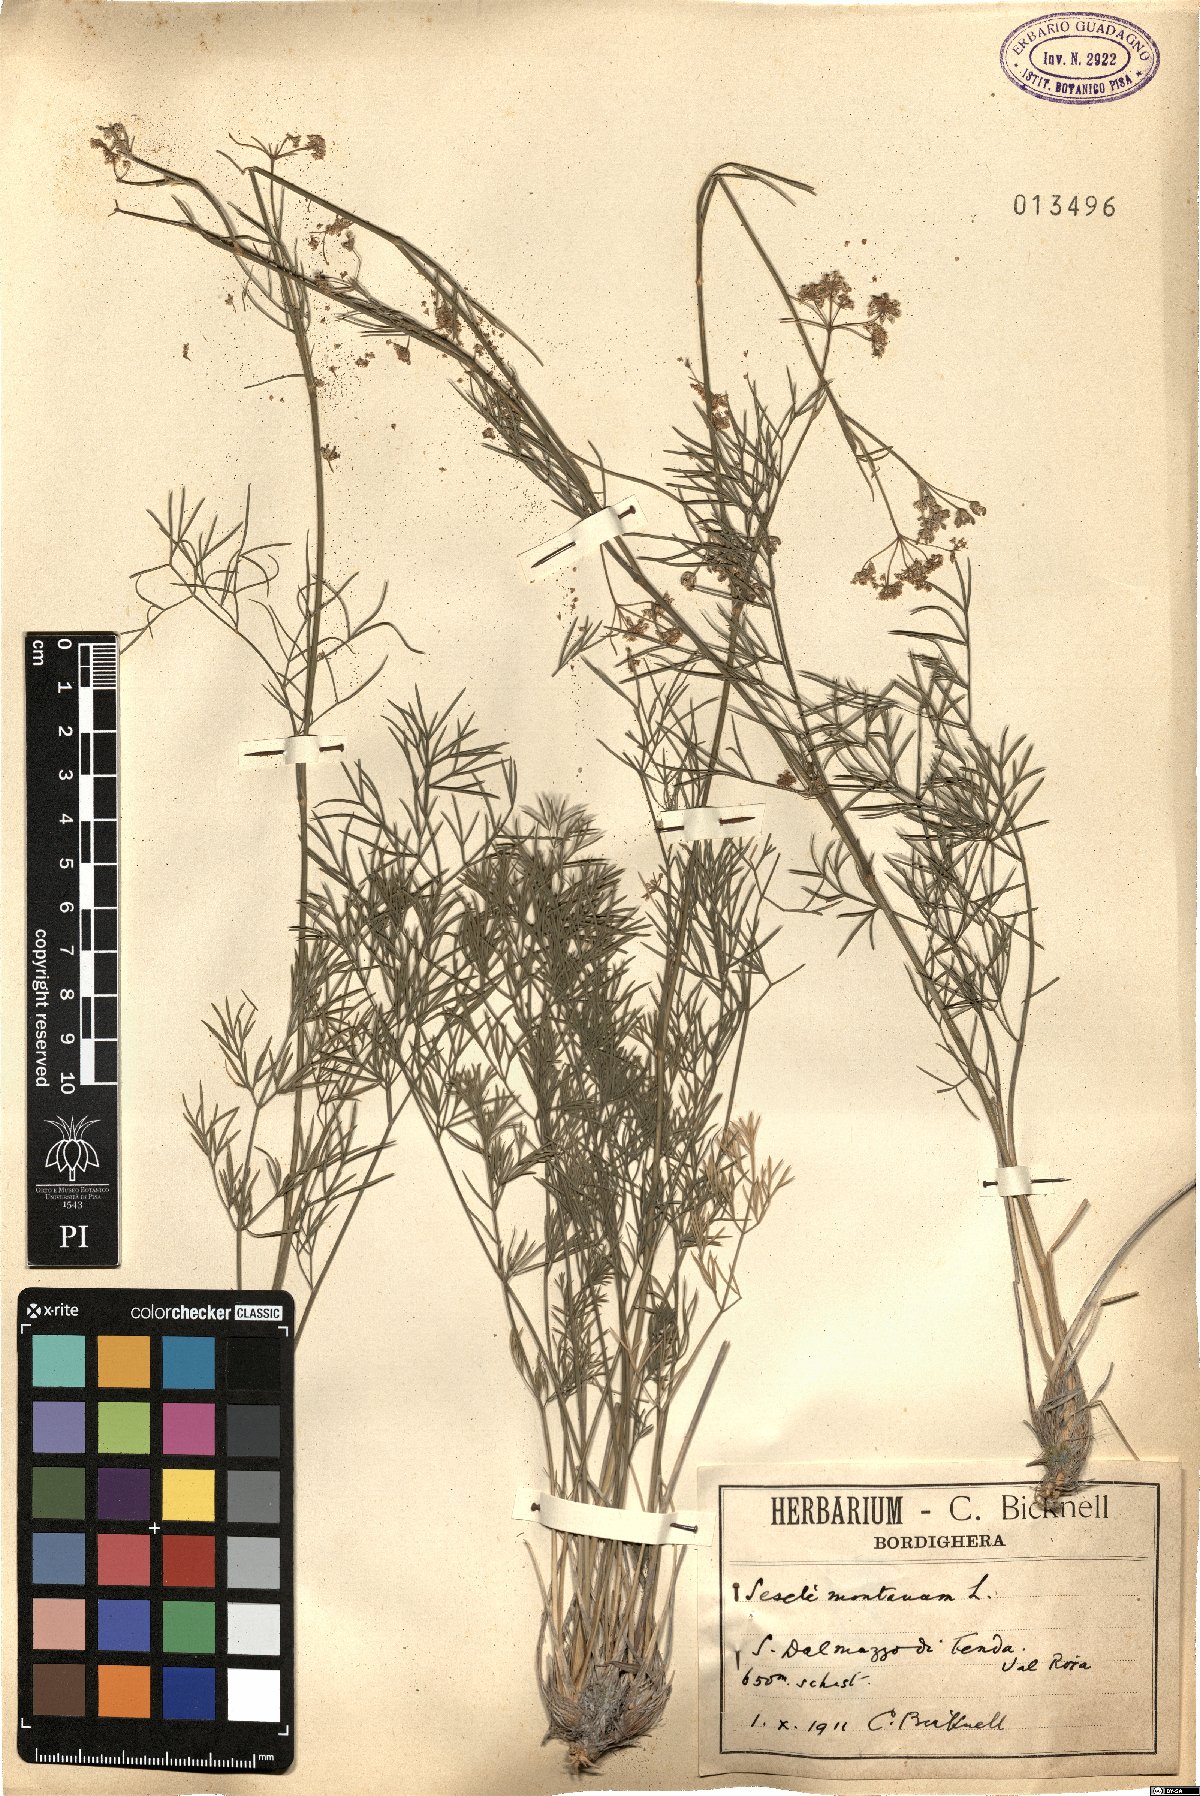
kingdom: Plantae
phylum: Tracheophyta
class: Magnoliopsida
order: Apiales
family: Apiaceae
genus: Seseli
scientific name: Seseli montanum
